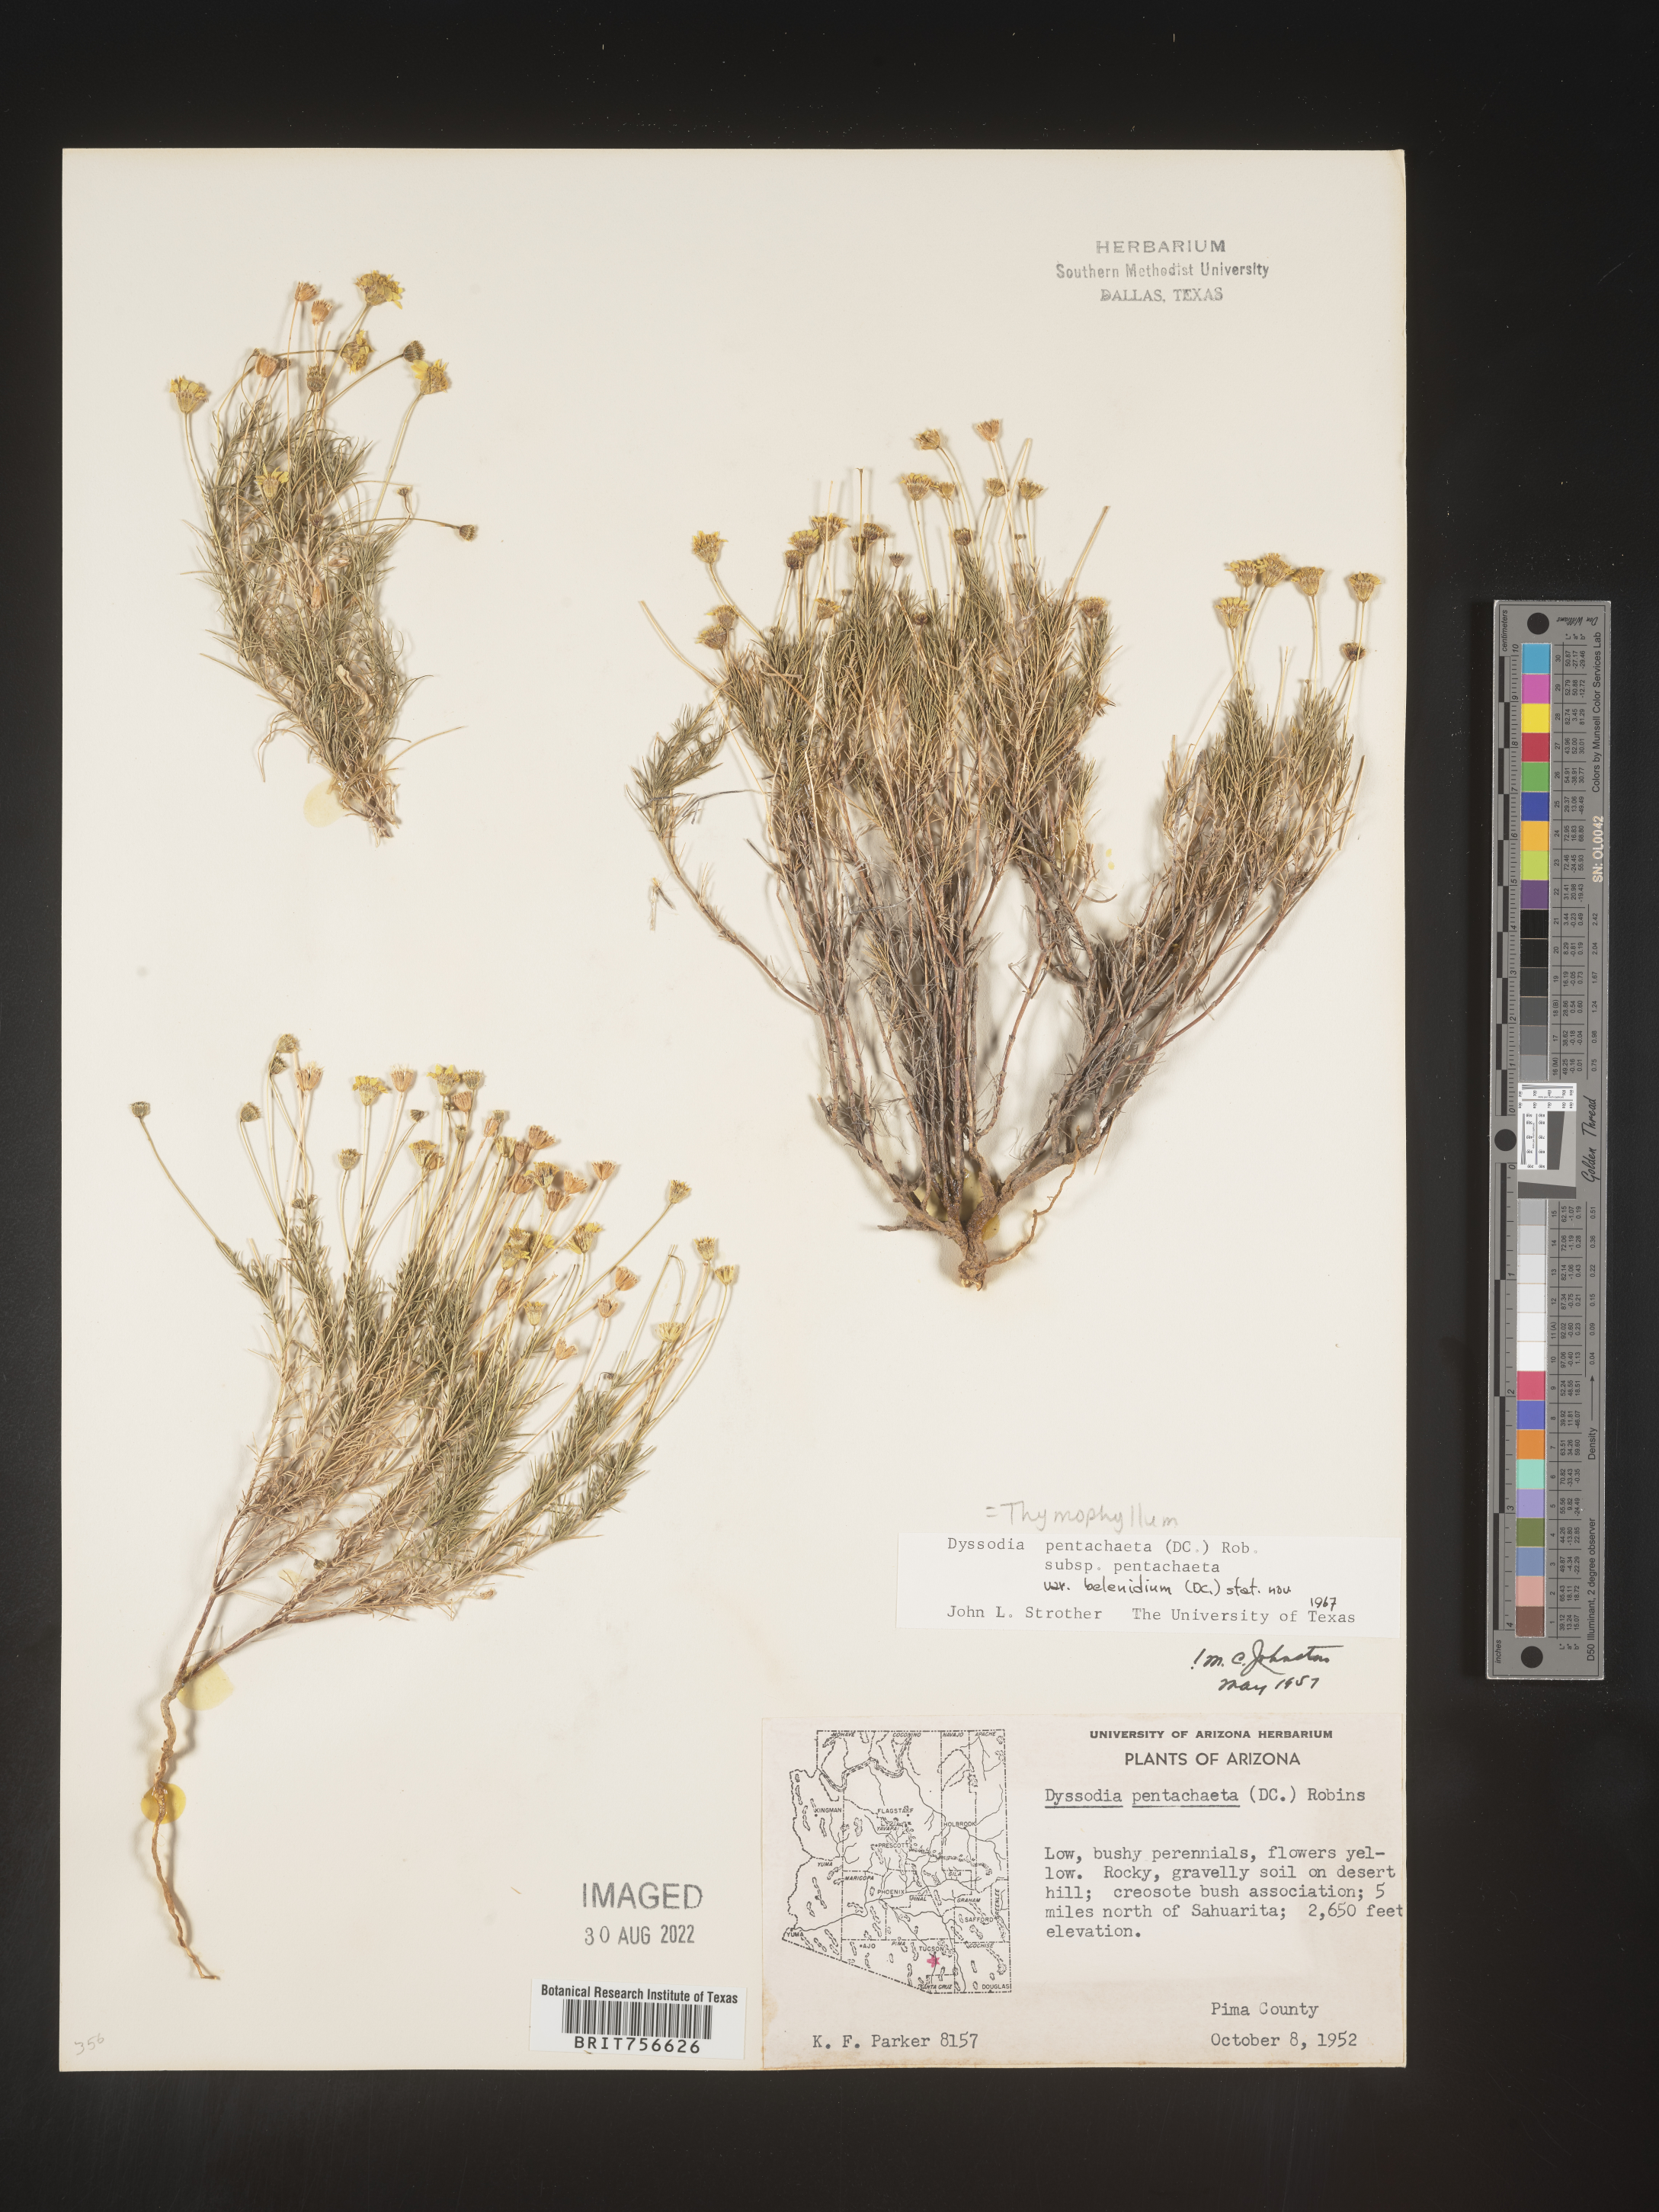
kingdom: Plantae
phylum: Tracheophyta
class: Magnoliopsida
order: Asterales
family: Asteraceae
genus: Thymophylla
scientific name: Thymophylla pentachaeta
